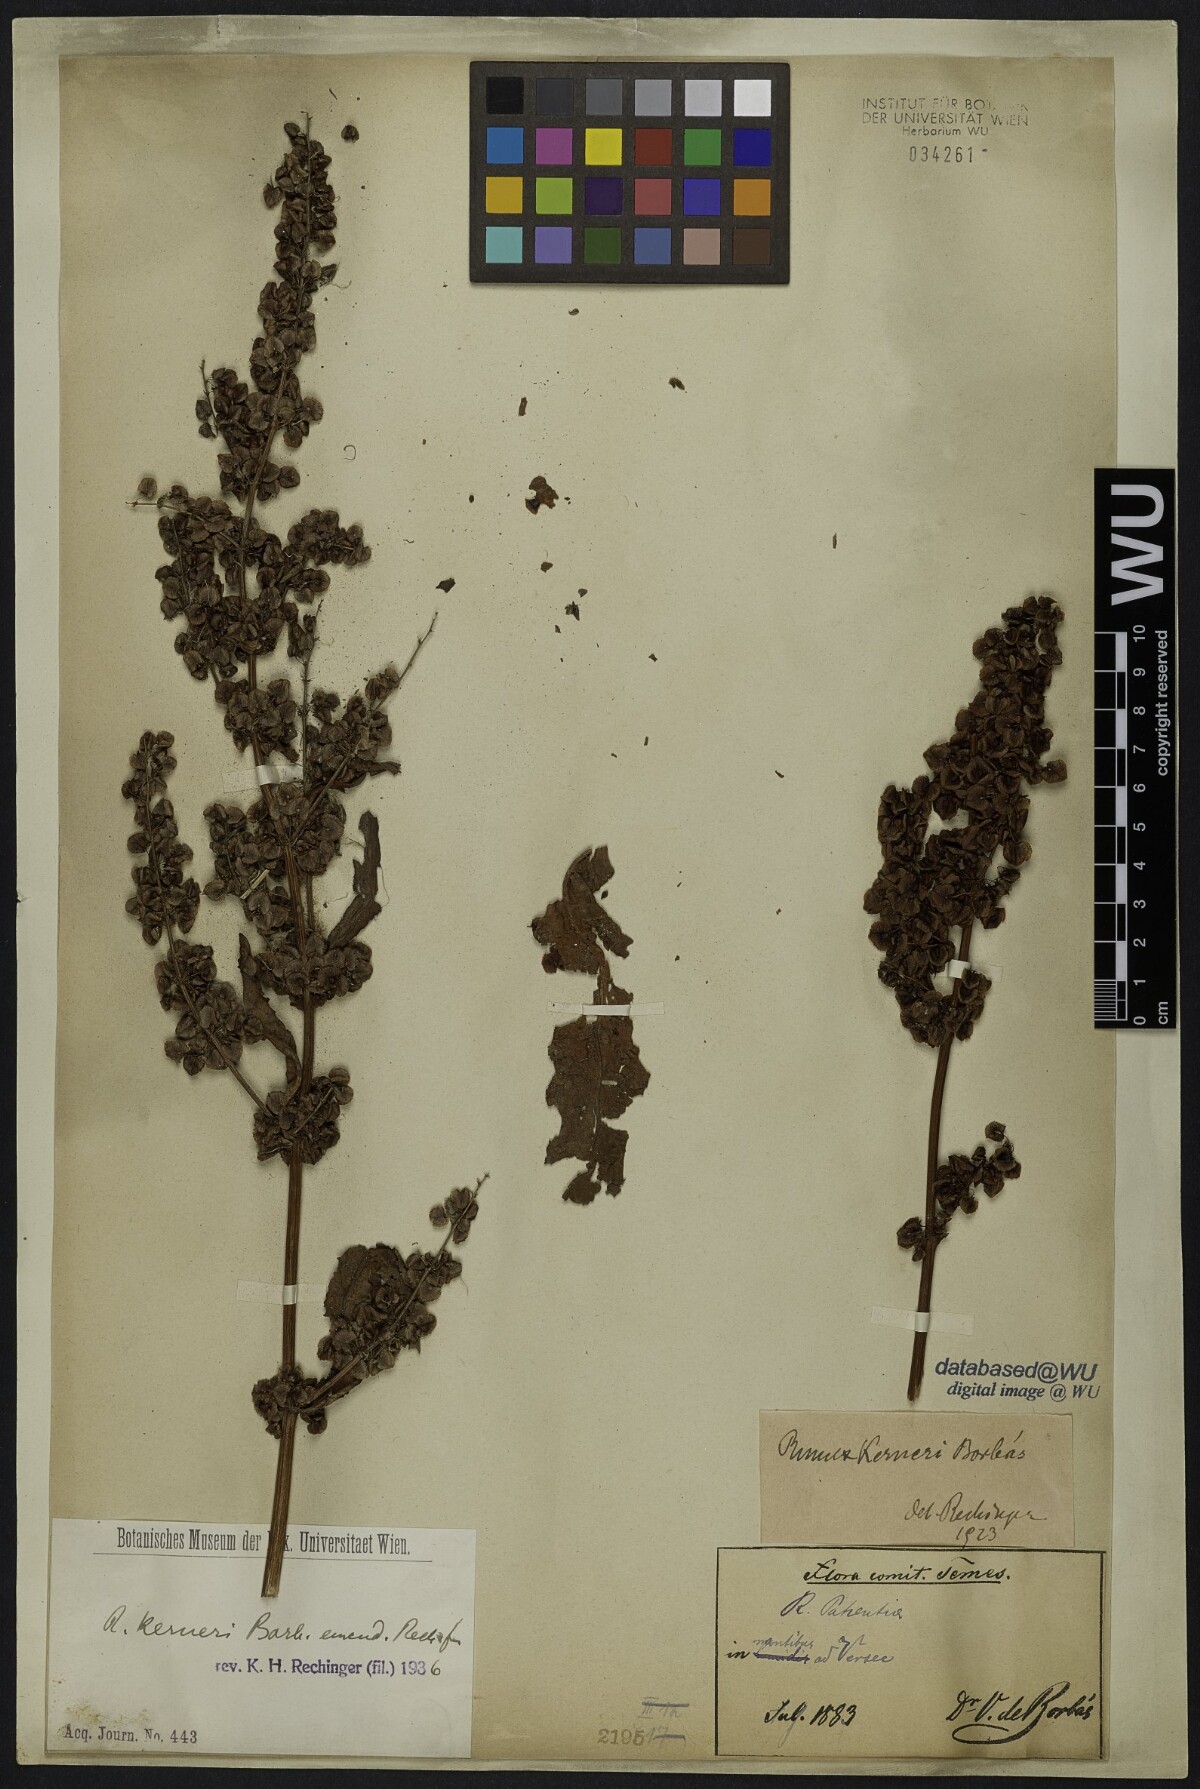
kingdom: Plantae
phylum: Tracheophyta
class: Magnoliopsida
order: Caryophyllales
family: Polygonaceae
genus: Rumex
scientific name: Rumex kerneri
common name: Kerner's dock
